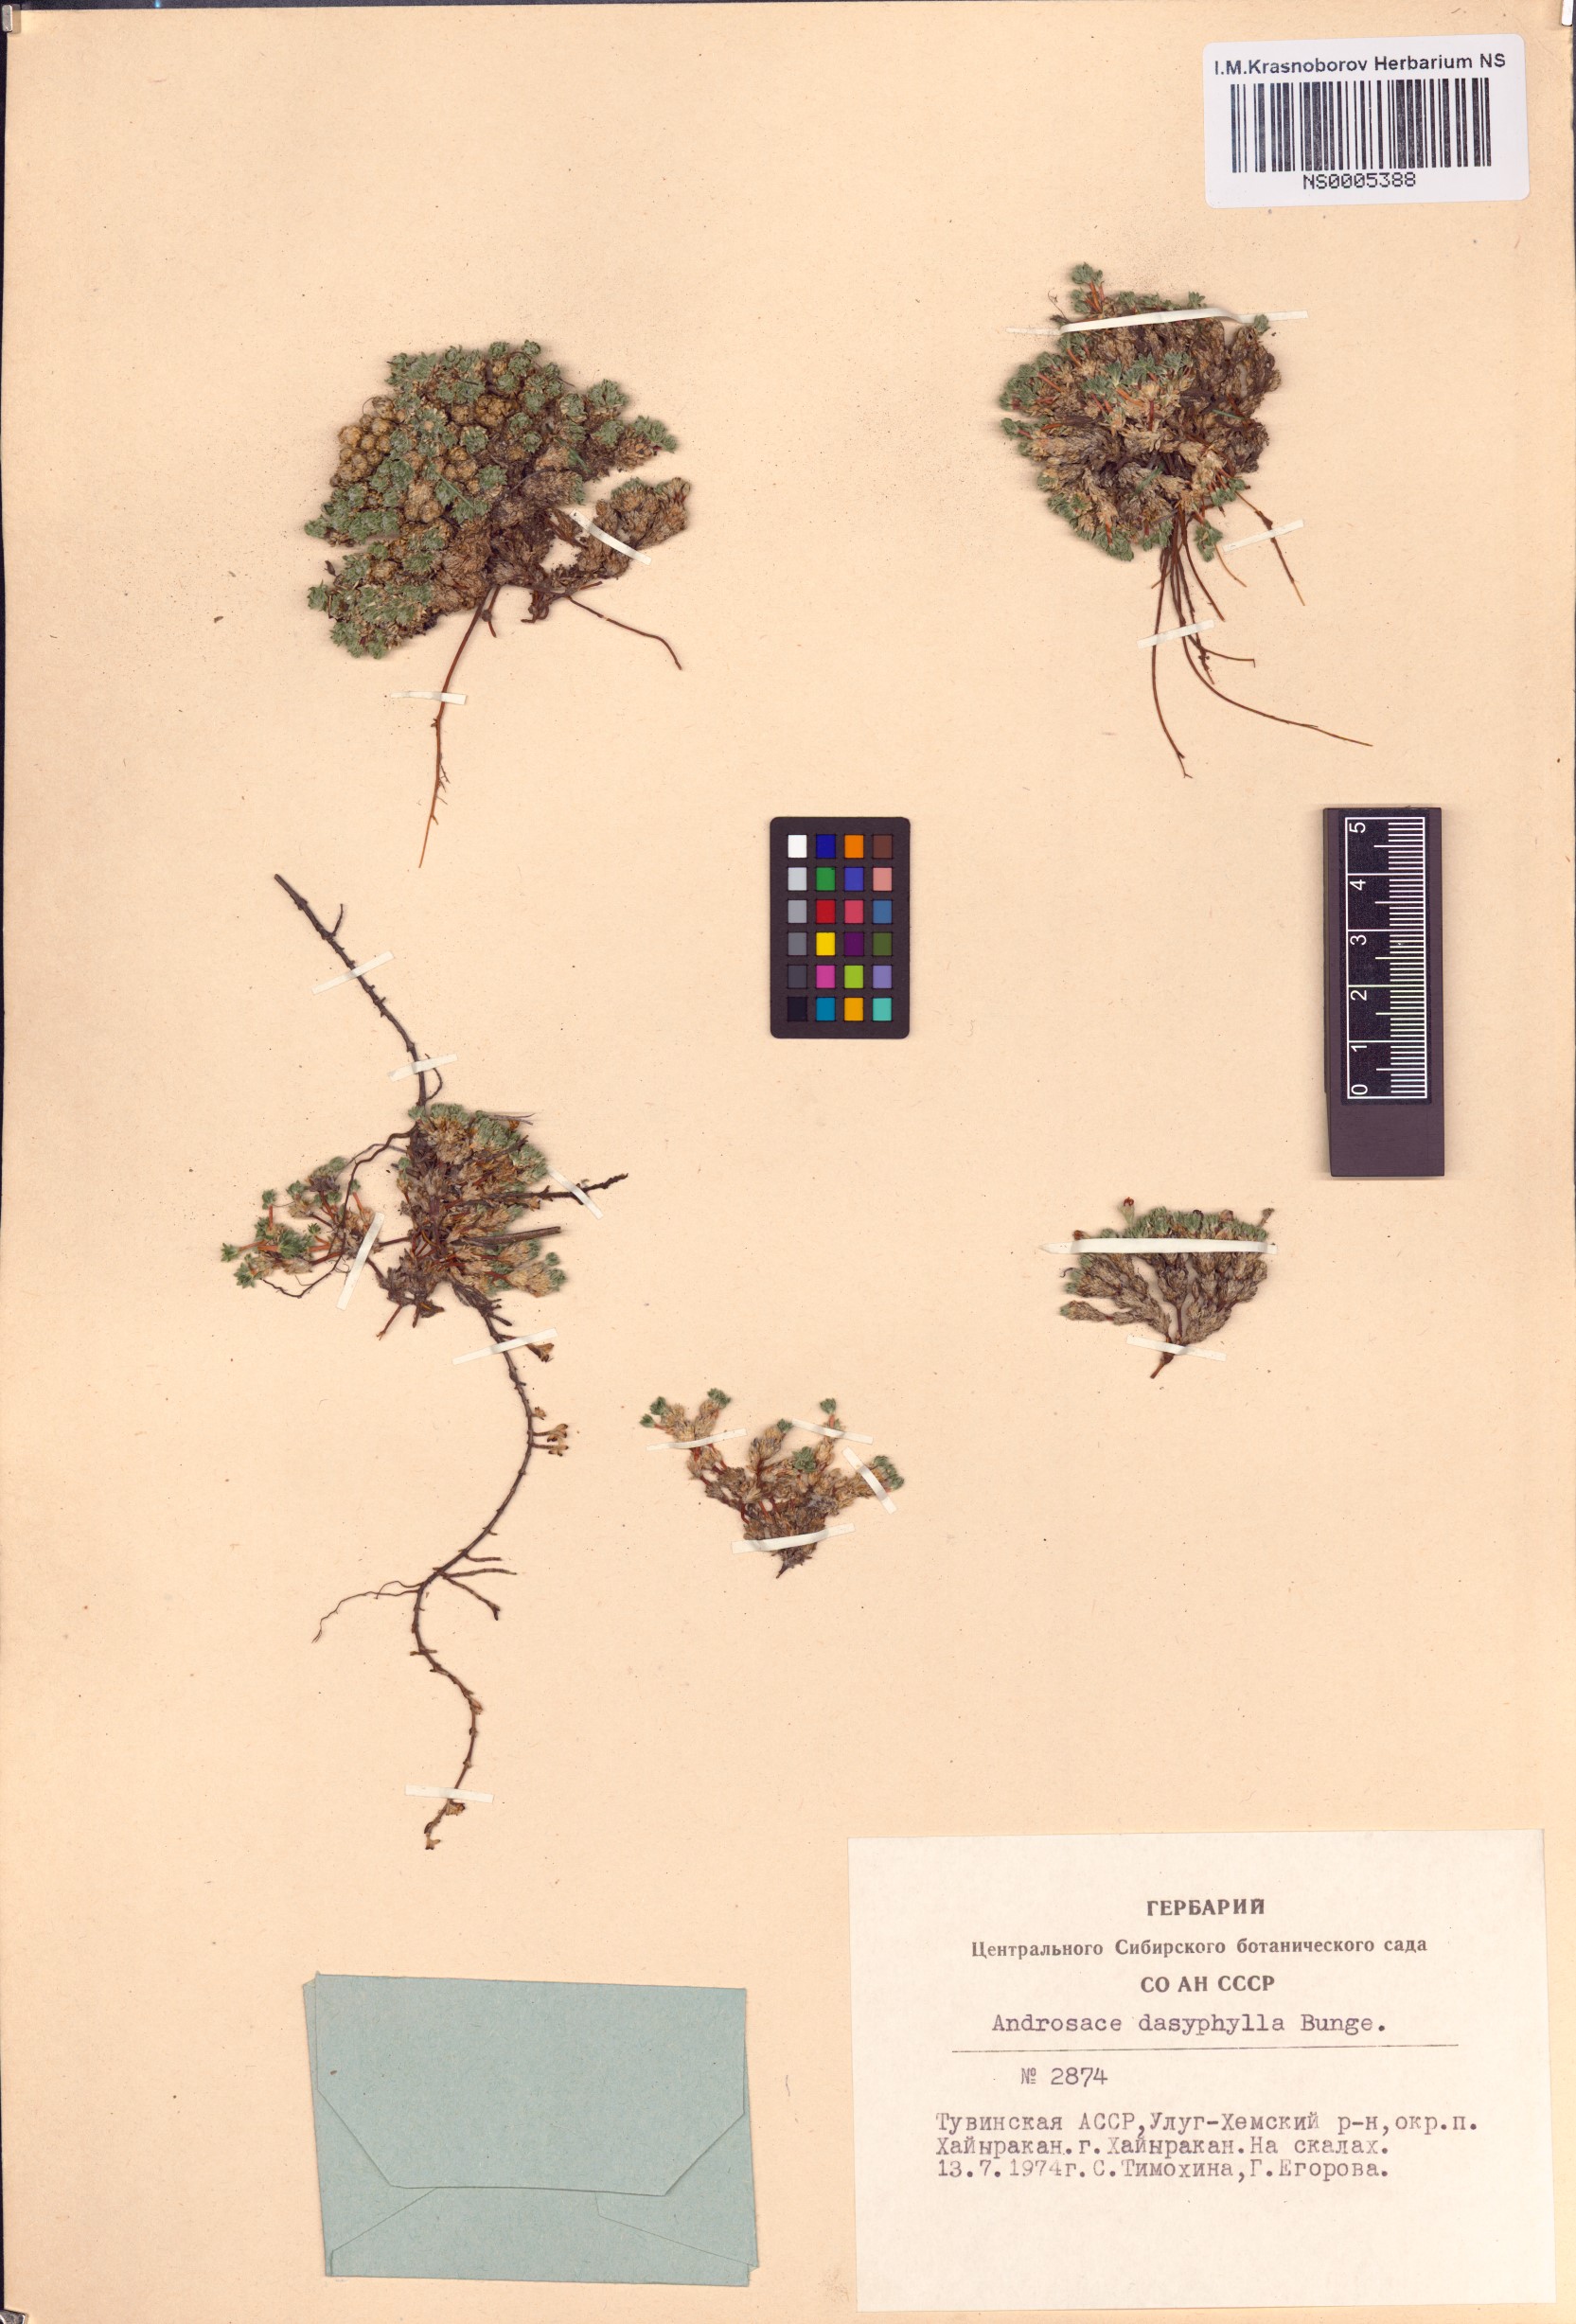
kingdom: Plantae
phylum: Tracheophyta
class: Magnoliopsida
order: Ericales
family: Primulaceae
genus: Androsace
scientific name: Androsace dasyphylla
